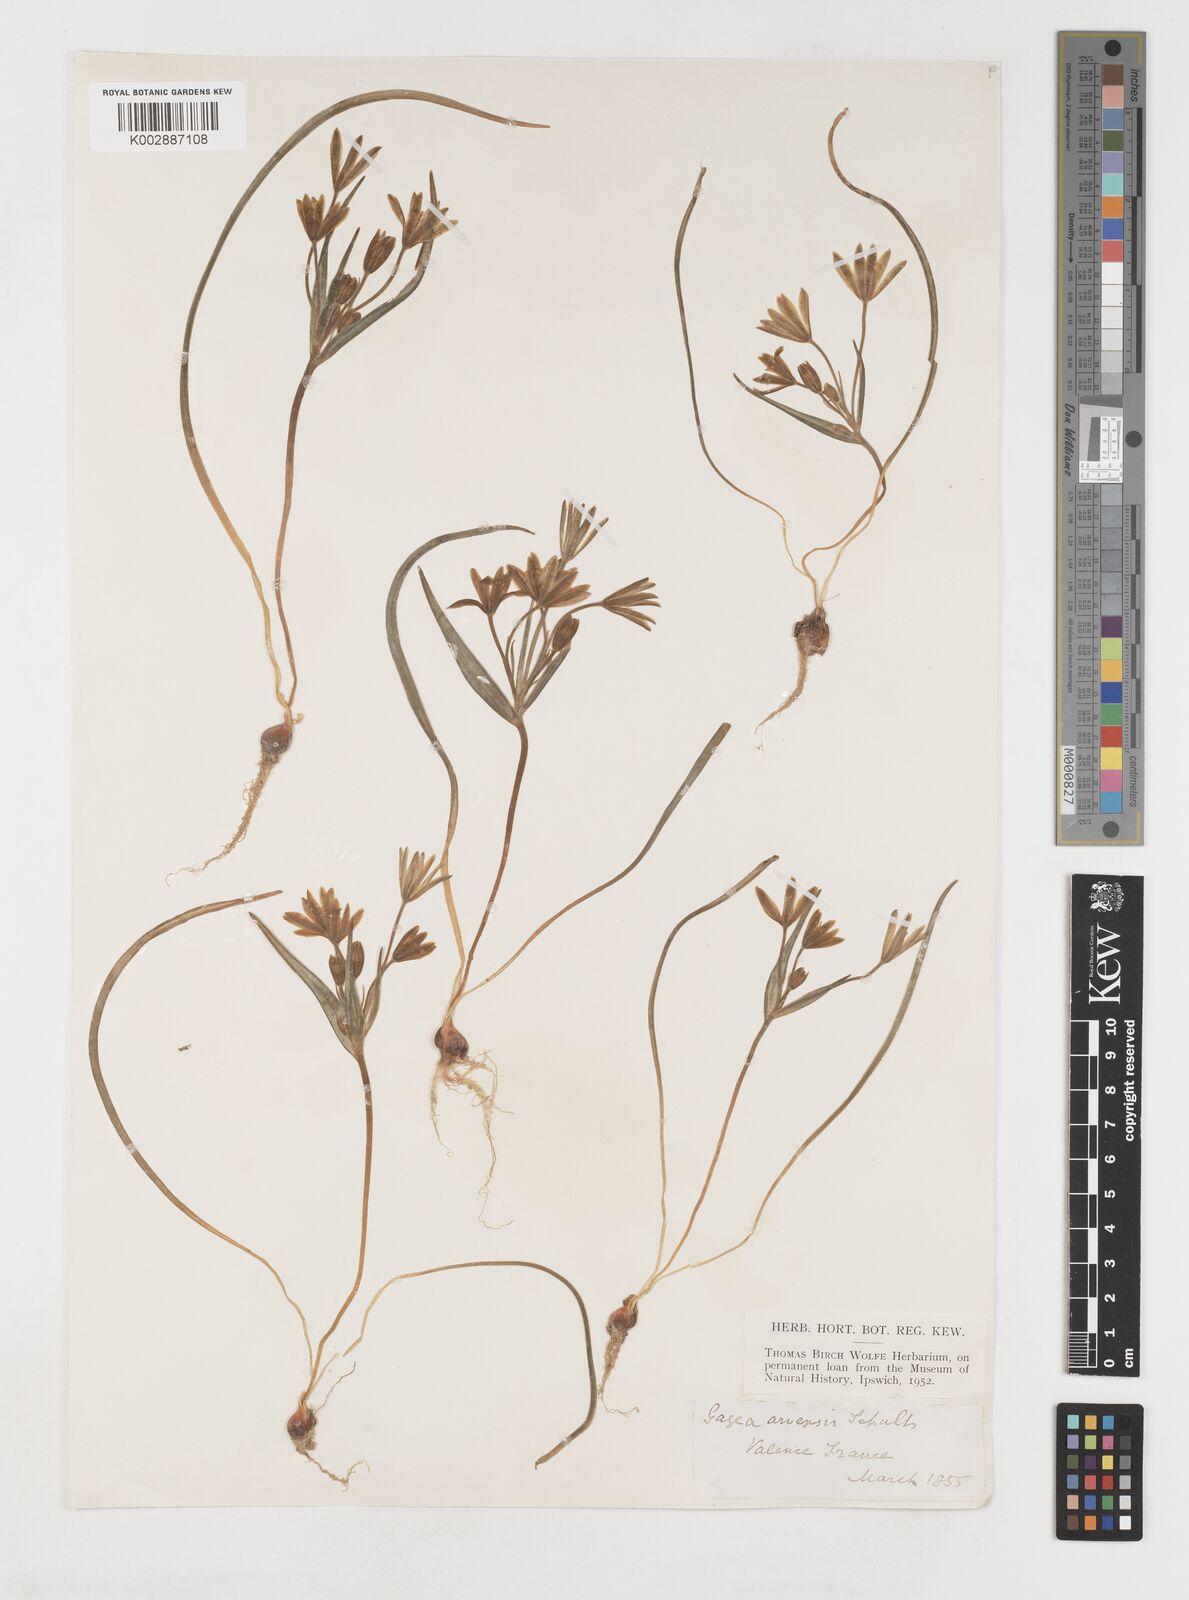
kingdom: Plantae
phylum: Tracheophyta
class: Liliopsida
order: Liliales
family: Liliaceae
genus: Gagea
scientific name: Gagea minima
